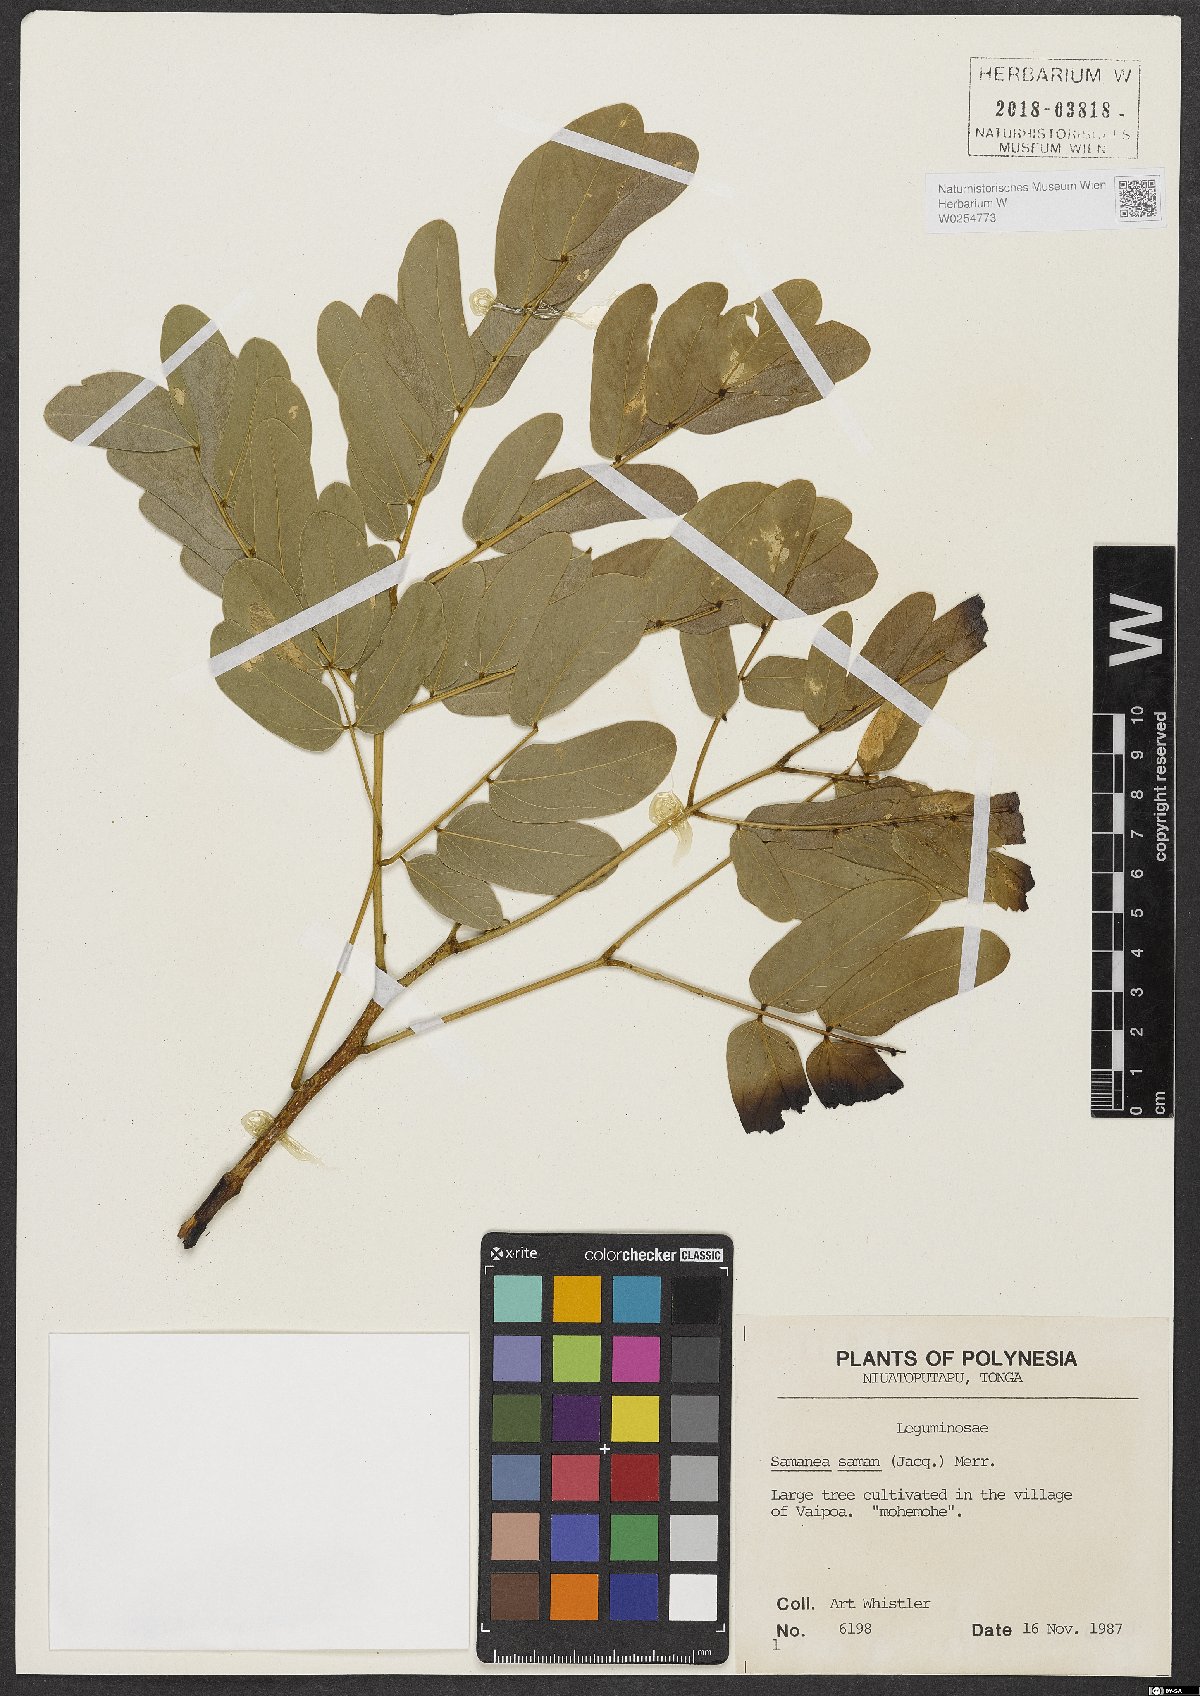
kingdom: Plantae
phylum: Tracheophyta
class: Magnoliopsida
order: Fabales
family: Fabaceae
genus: Samanea
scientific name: Samanea saman
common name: Raintree
